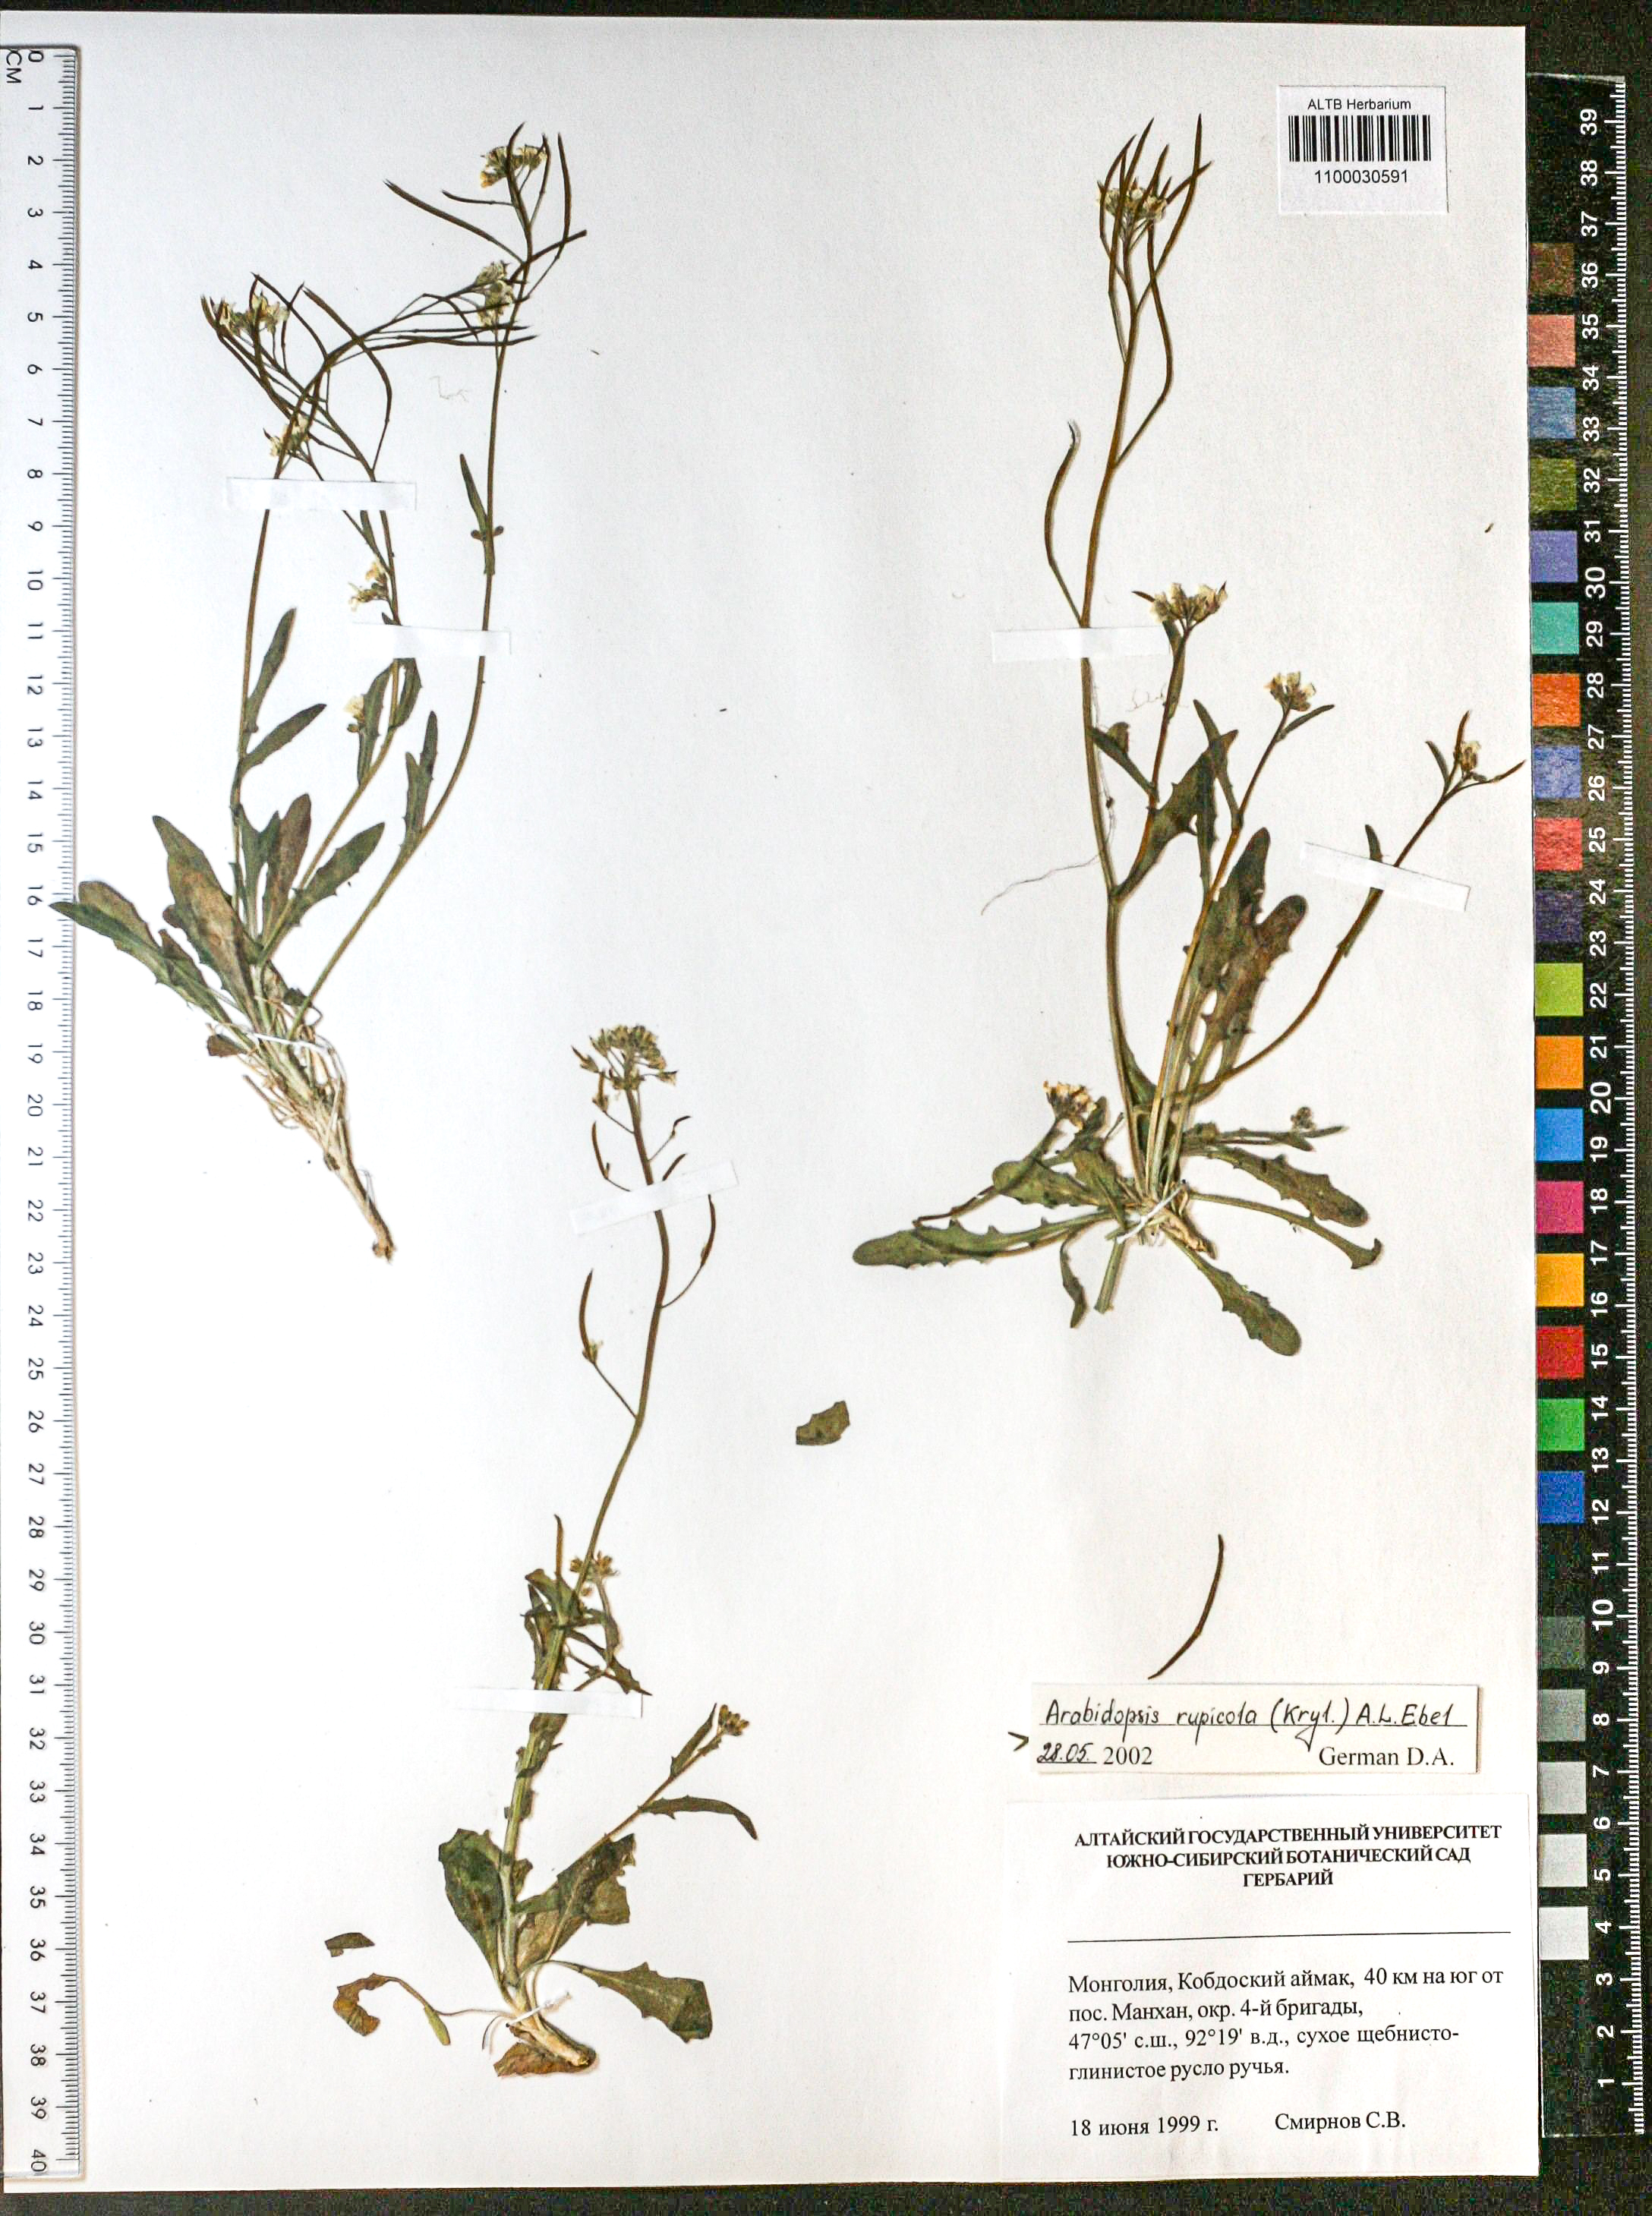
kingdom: Plantae
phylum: Tracheophyta
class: Magnoliopsida
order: Brassicales
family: Brassicaceae
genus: Crucihimalaya
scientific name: Crucihimalaya rupicola
